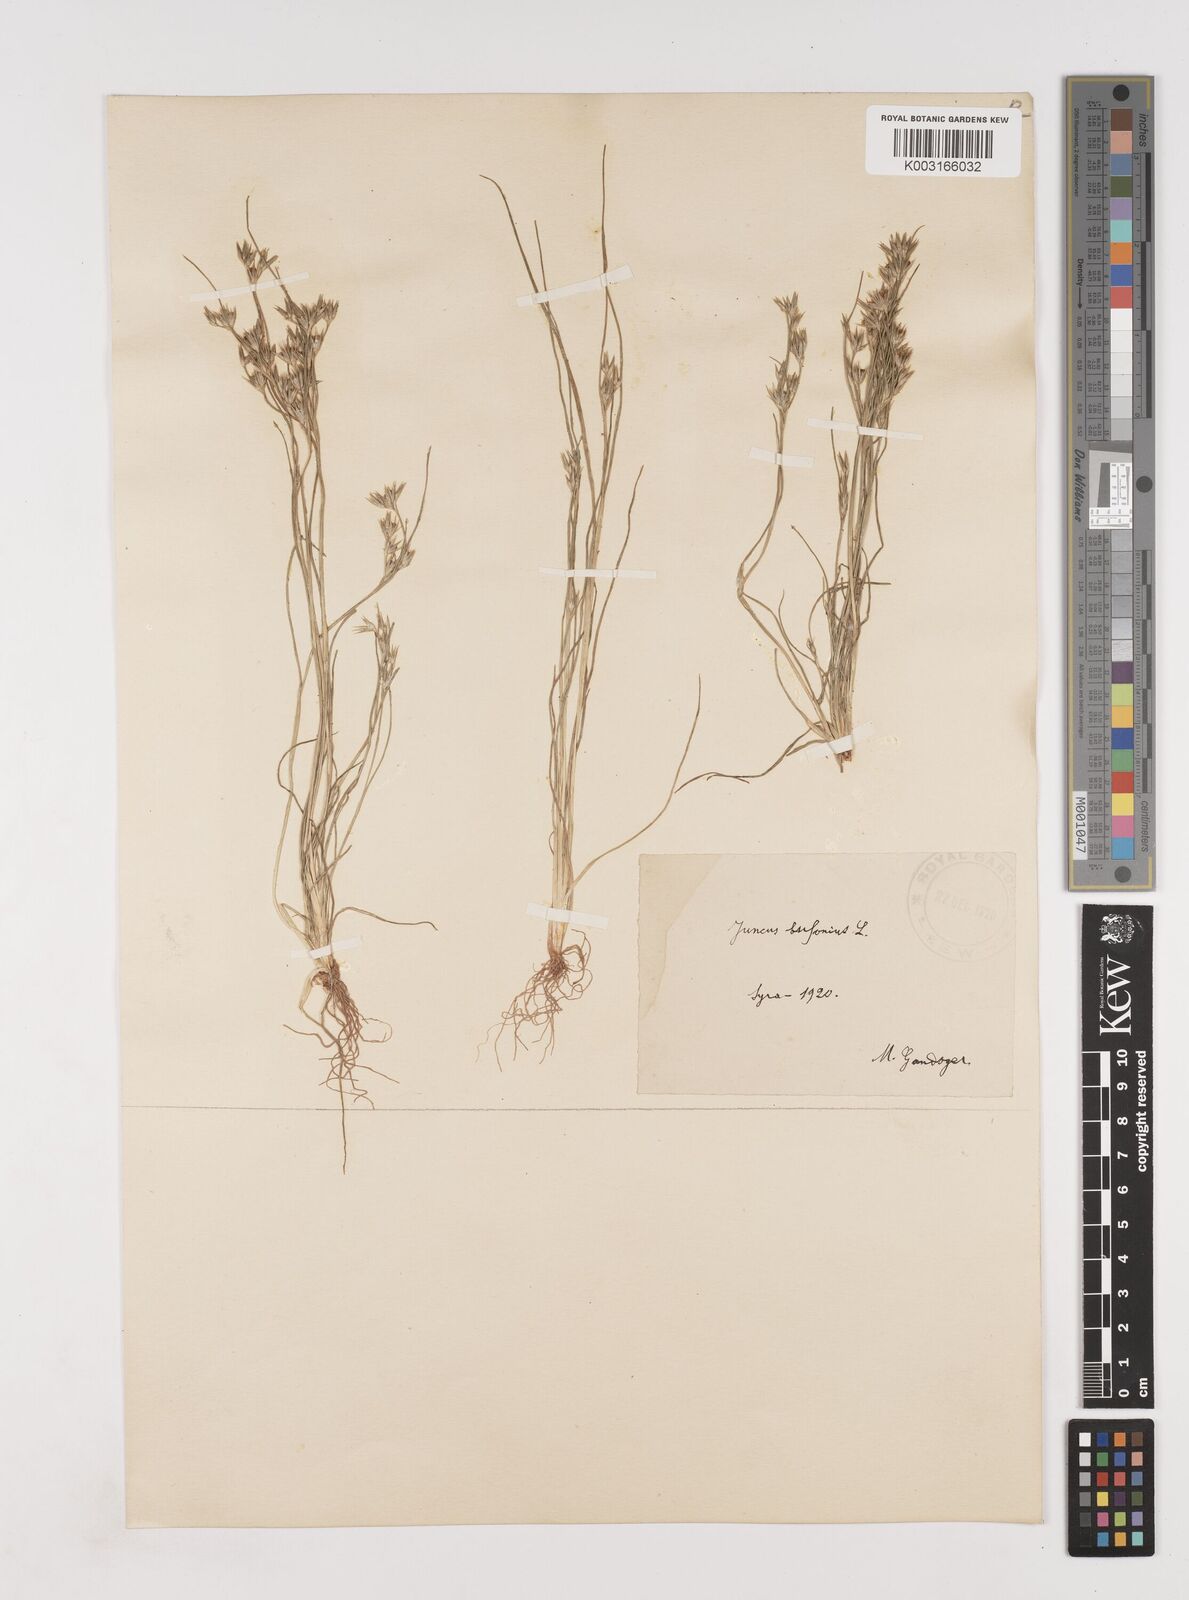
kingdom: Plantae
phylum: Tracheophyta
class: Liliopsida
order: Poales
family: Juncaceae
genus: Juncus
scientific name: Juncus bufonius
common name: Toad rush
